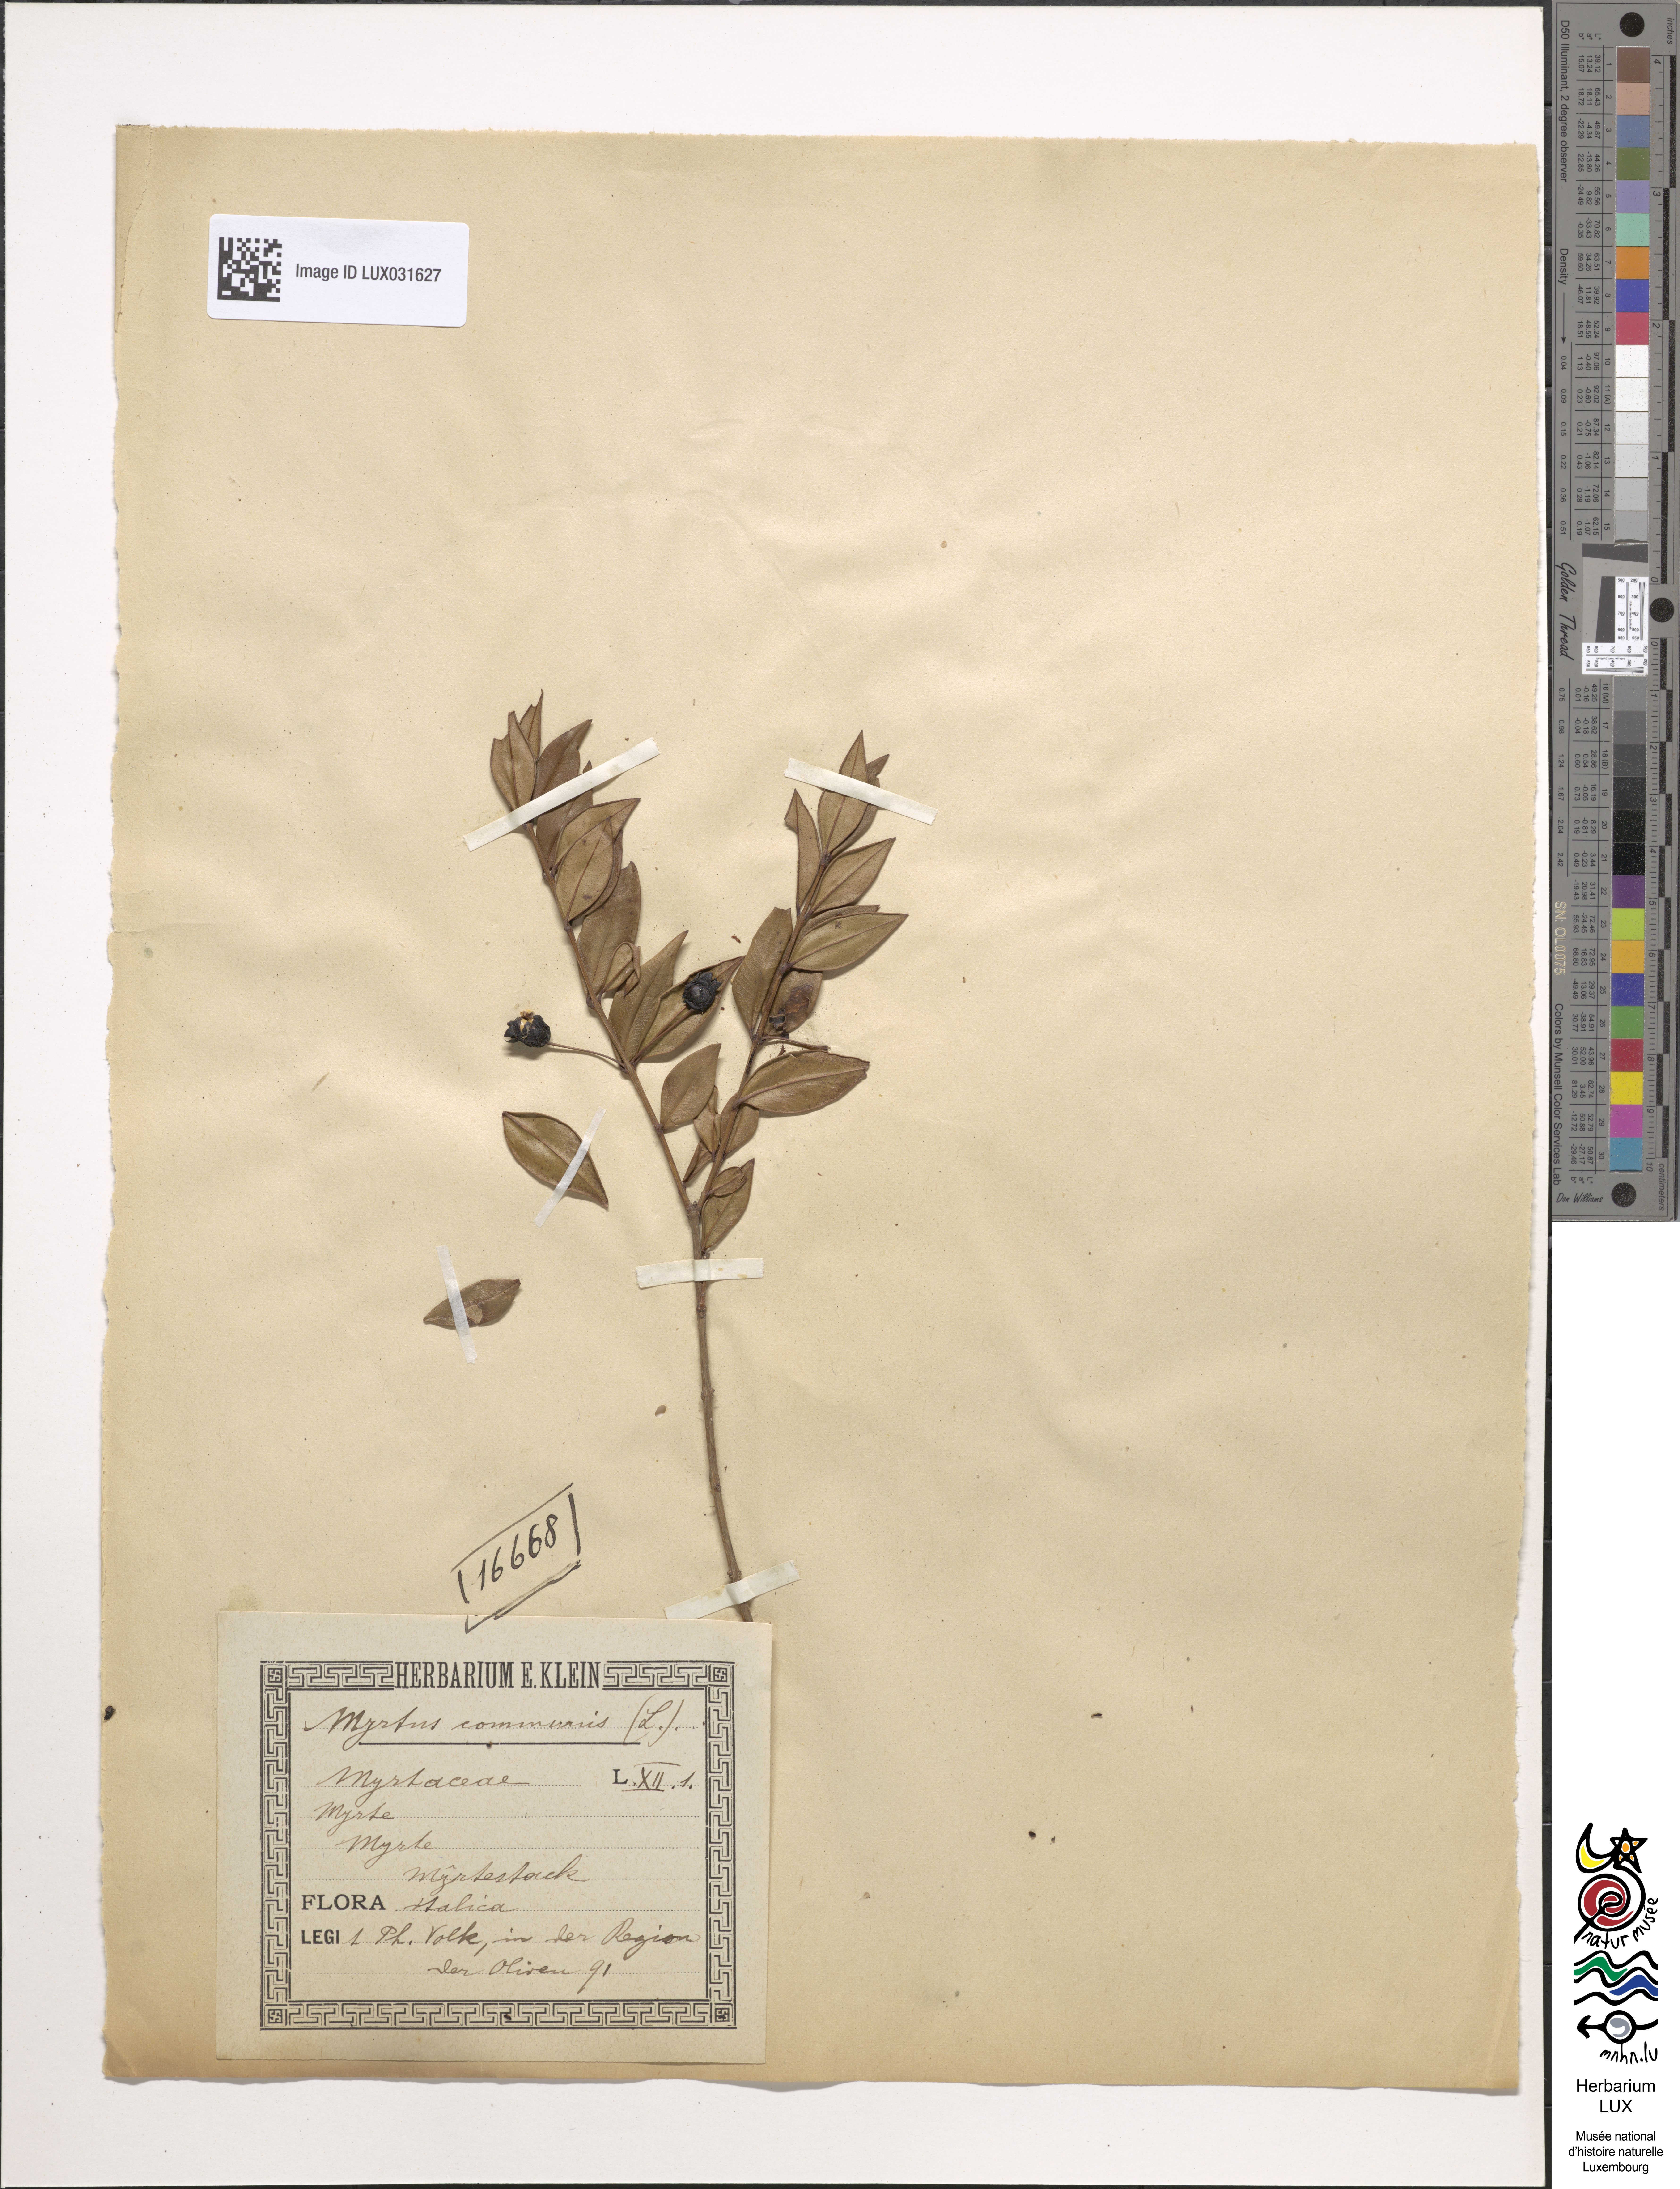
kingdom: Plantae
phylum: Tracheophyta
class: Magnoliopsida
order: Myrtales
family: Myrtaceae
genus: Myrtus
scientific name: Myrtus communis
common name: Myrtle
